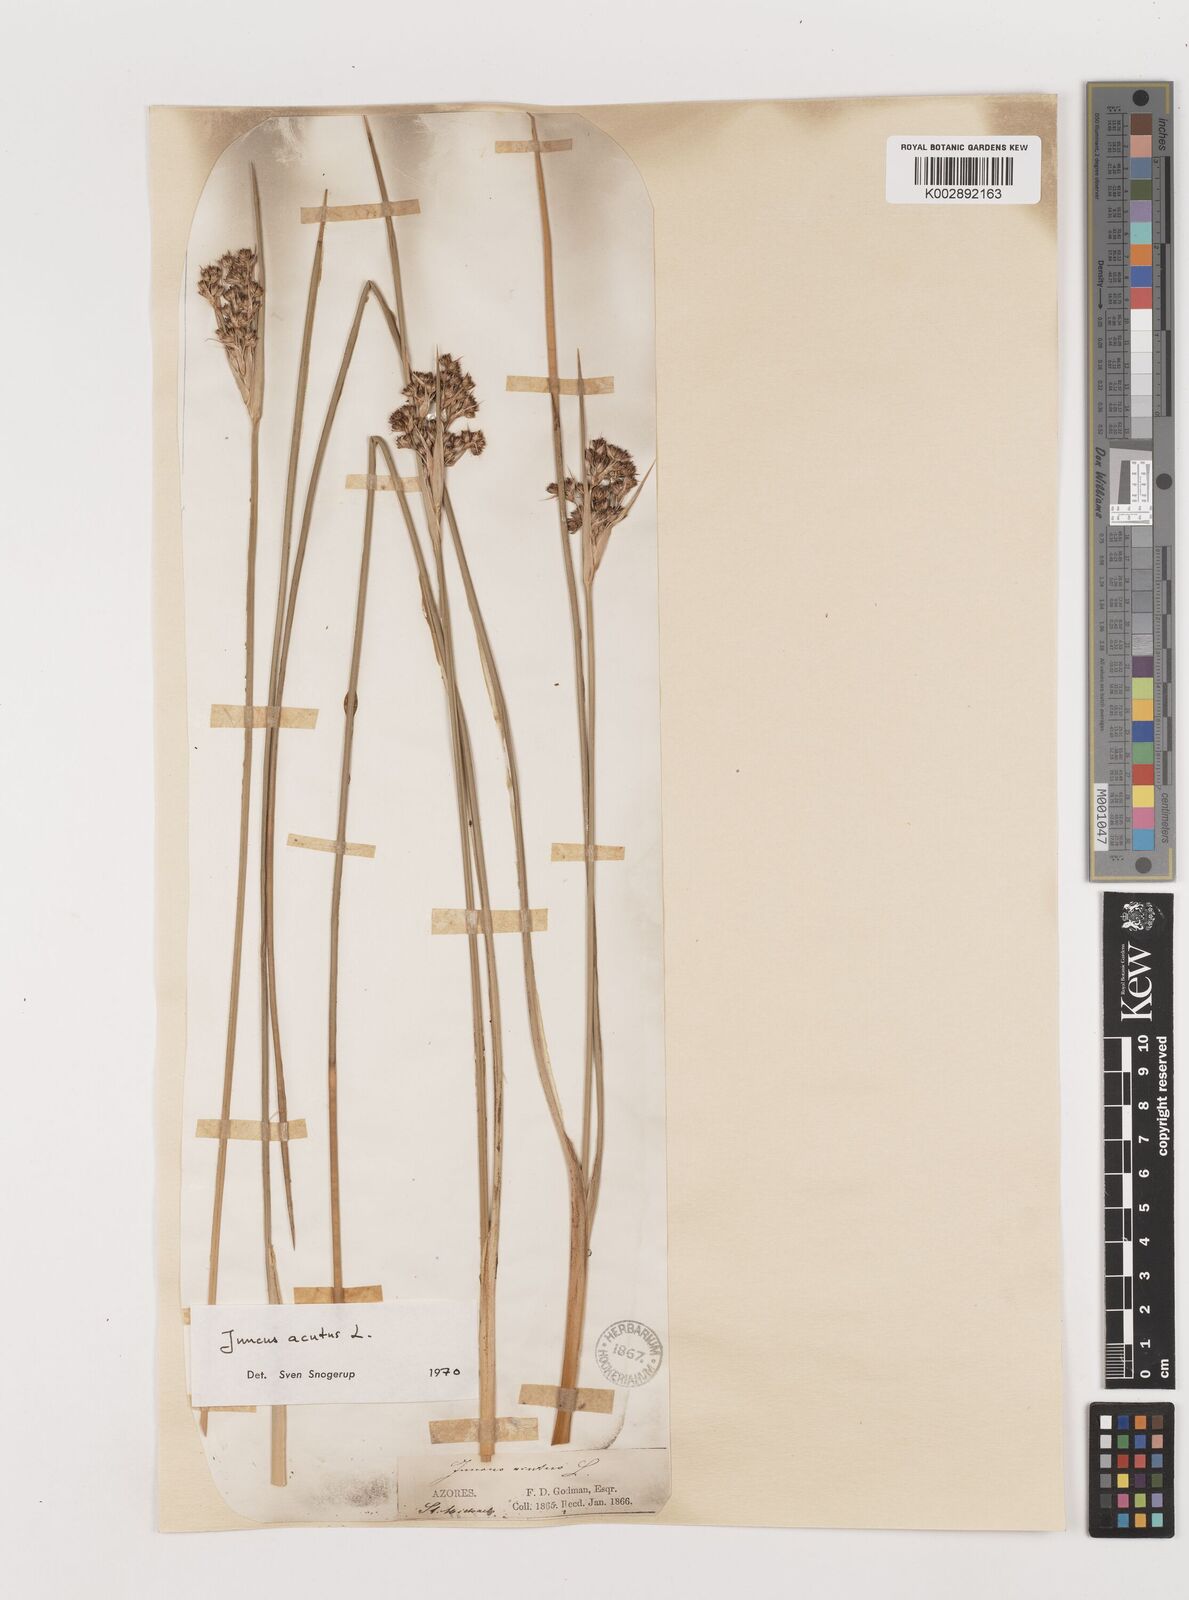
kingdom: Plantae
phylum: Tracheophyta
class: Liliopsida
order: Poales
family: Juncaceae
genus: Juncus
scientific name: Juncus acutus
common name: Sharp rush
